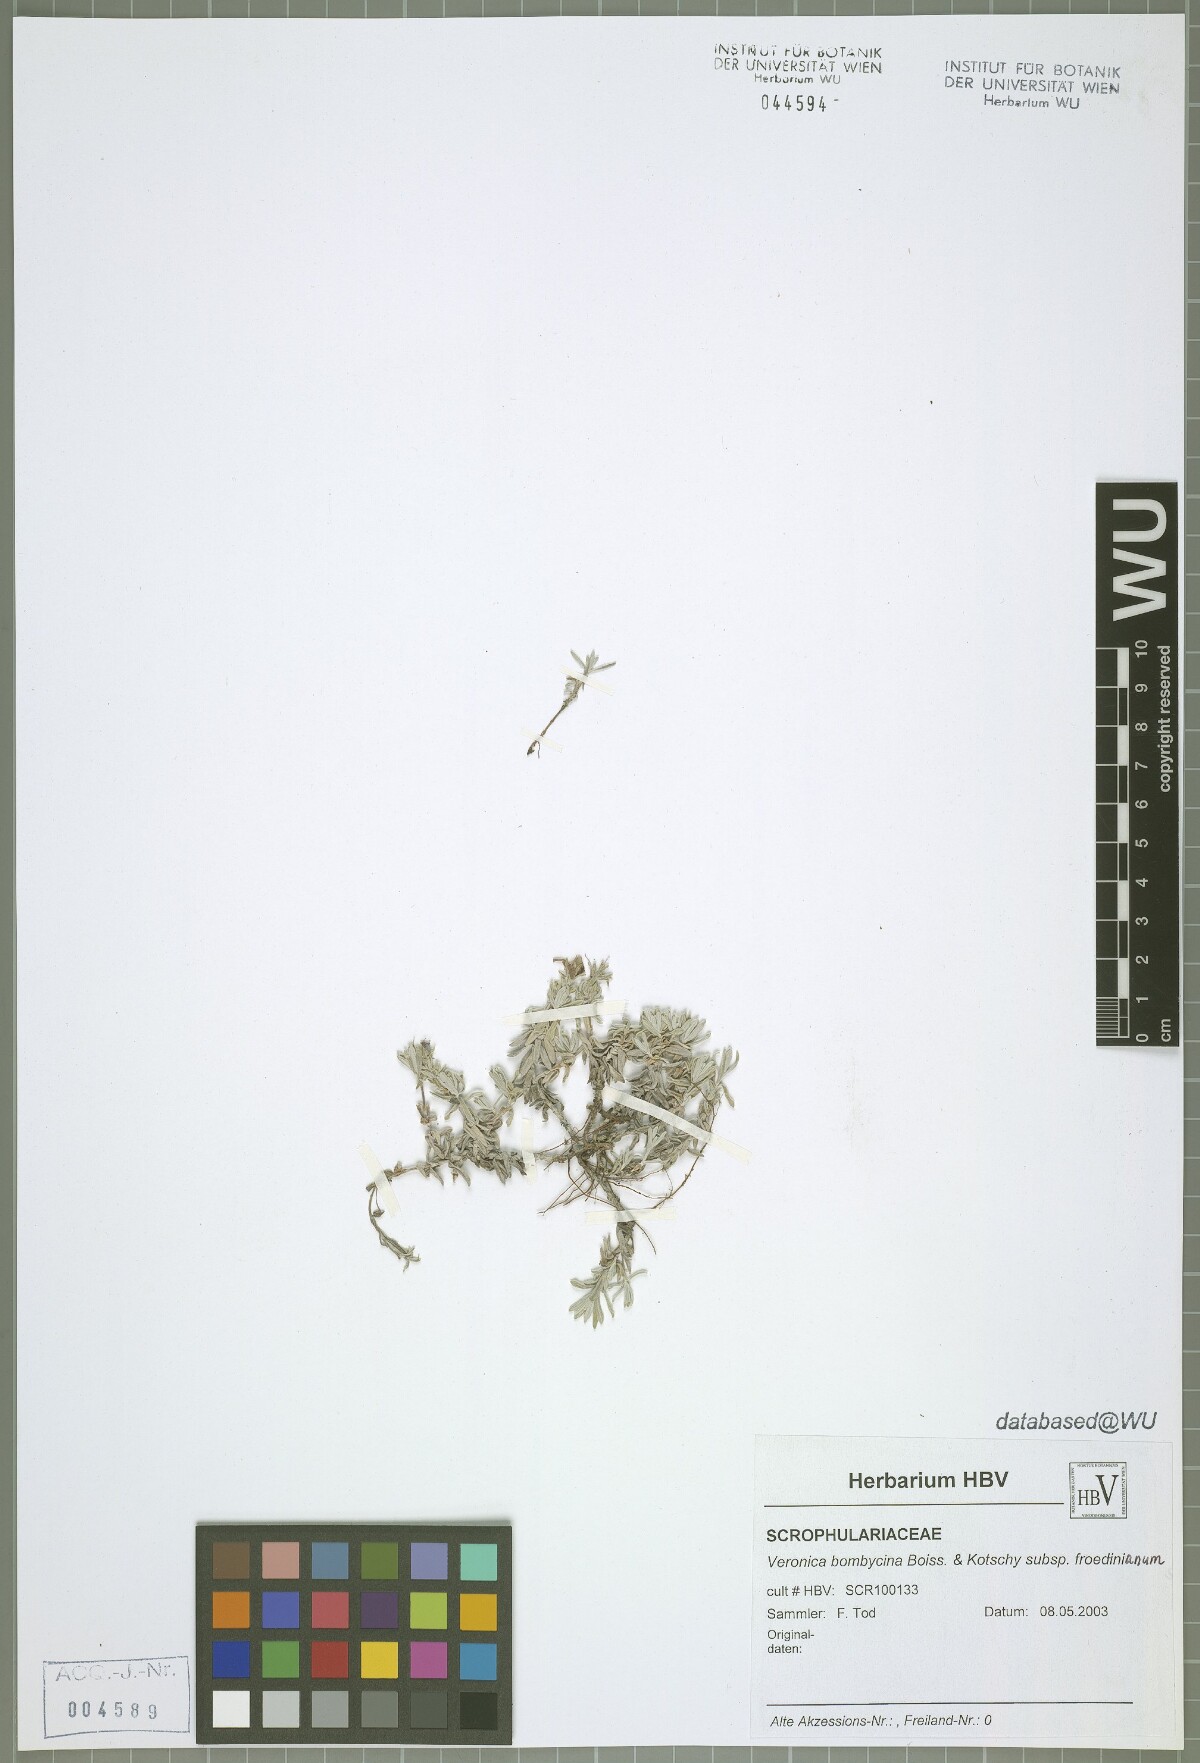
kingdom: Plantae
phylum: Tracheophyta
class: Magnoliopsida
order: Lamiales
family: Plantaginaceae
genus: Veronica
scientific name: Veronica bombycina
